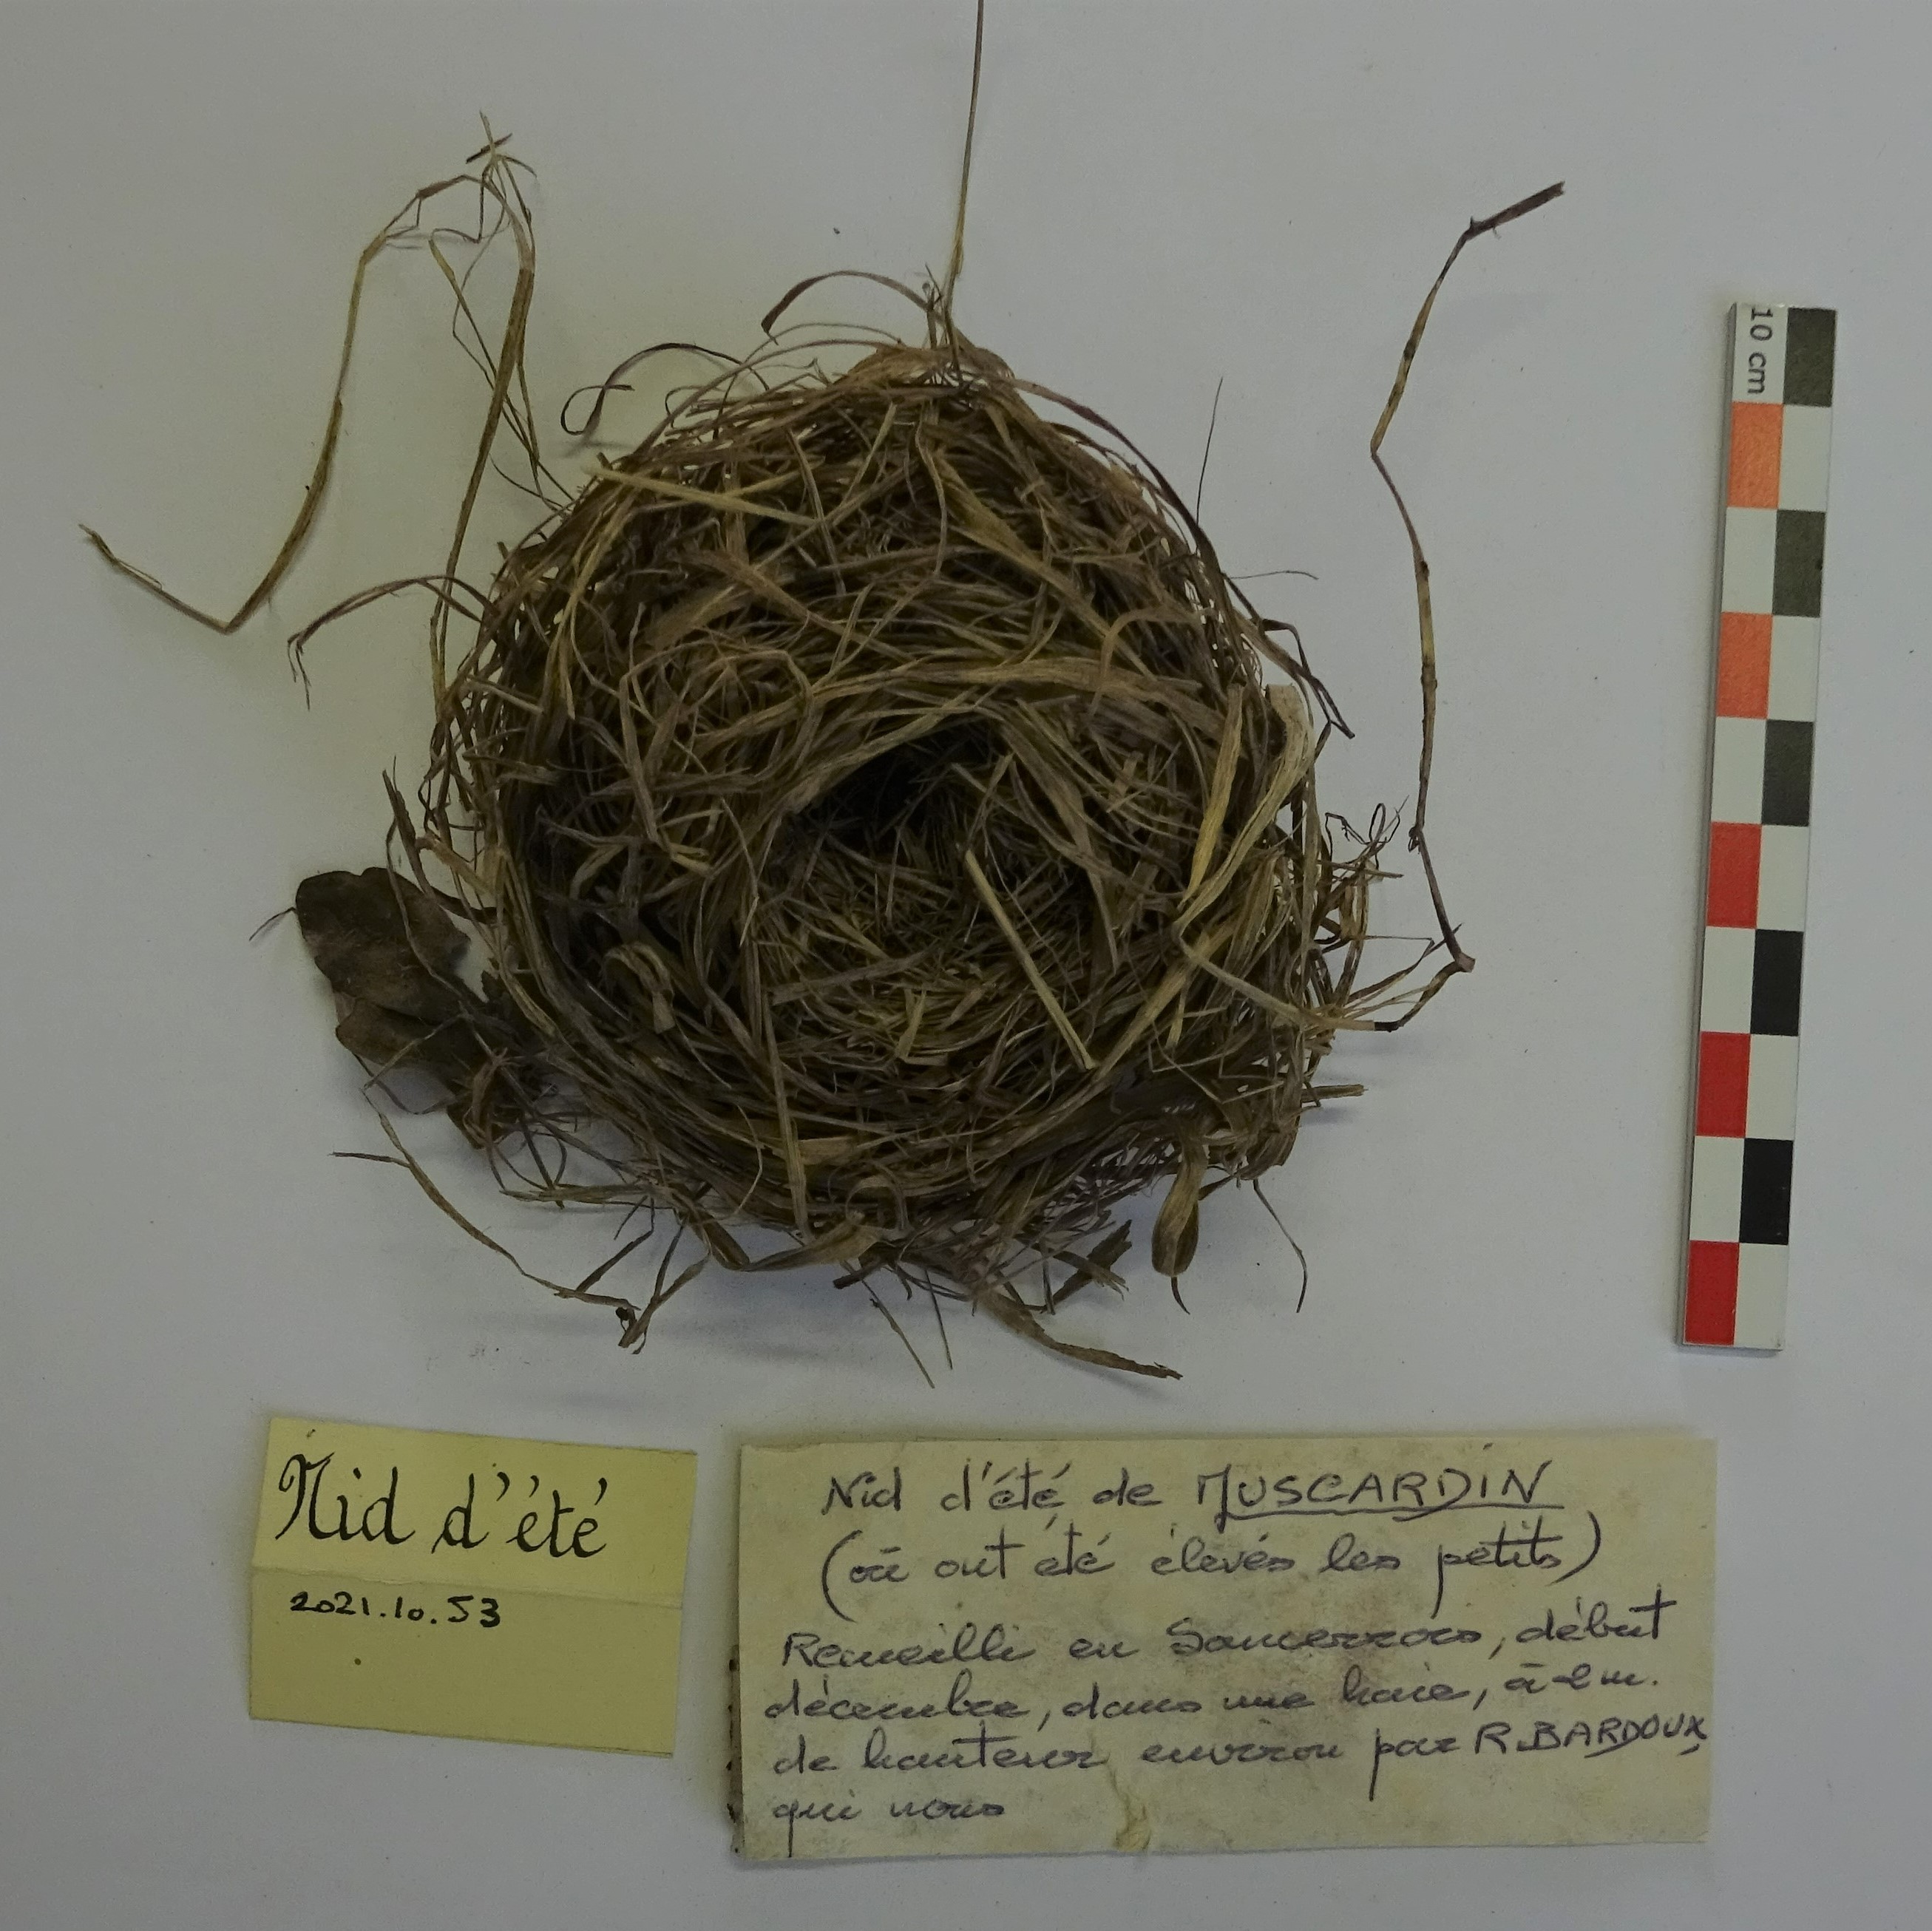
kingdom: Animalia
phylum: Chordata
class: Mammalia
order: Rodentia
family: Gliridae
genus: Muscardinus
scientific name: Muscardinus avellanarius
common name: Hazel dormouse
